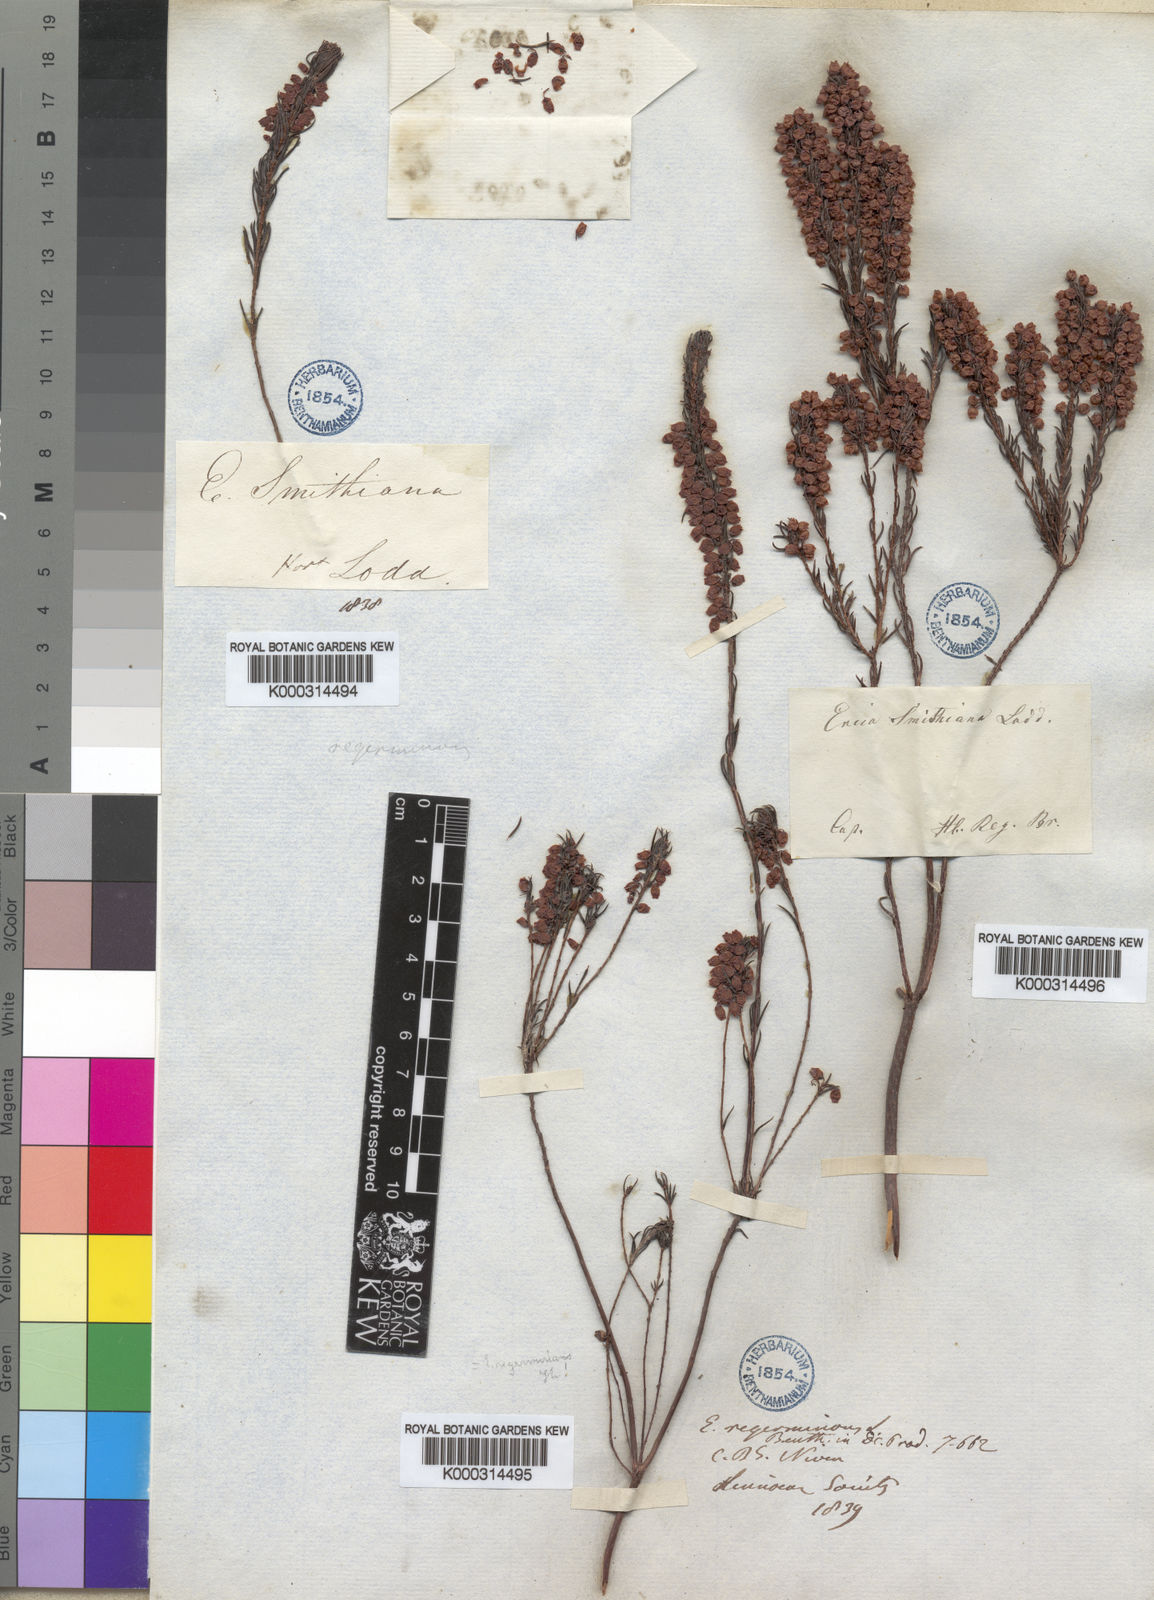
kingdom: Plantae
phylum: Tracheophyta
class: Magnoliopsida
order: Ericales
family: Ericaceae
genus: Erica
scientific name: Erica regerminans
